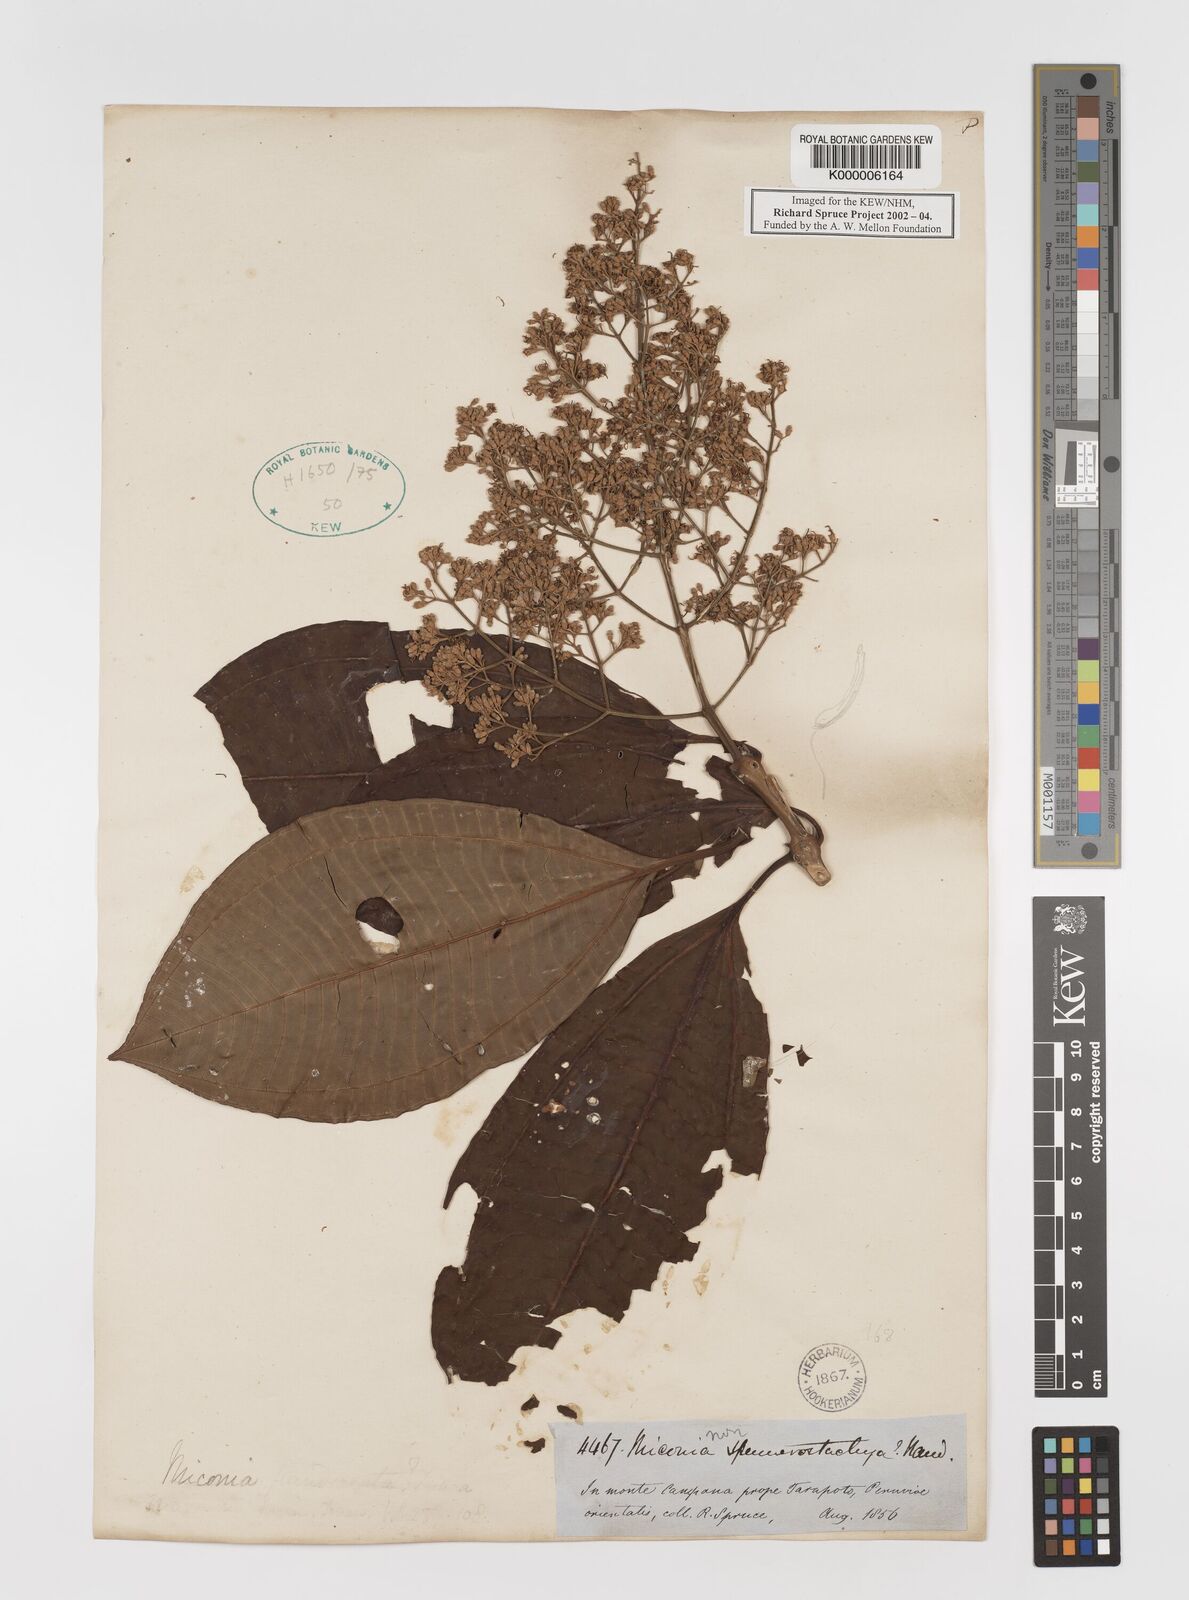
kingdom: Plantae
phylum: Tracheophyta
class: Magnoliopsida
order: Myrtales
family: Melastomataceae
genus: Miconia
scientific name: Miconia spennerostachya
